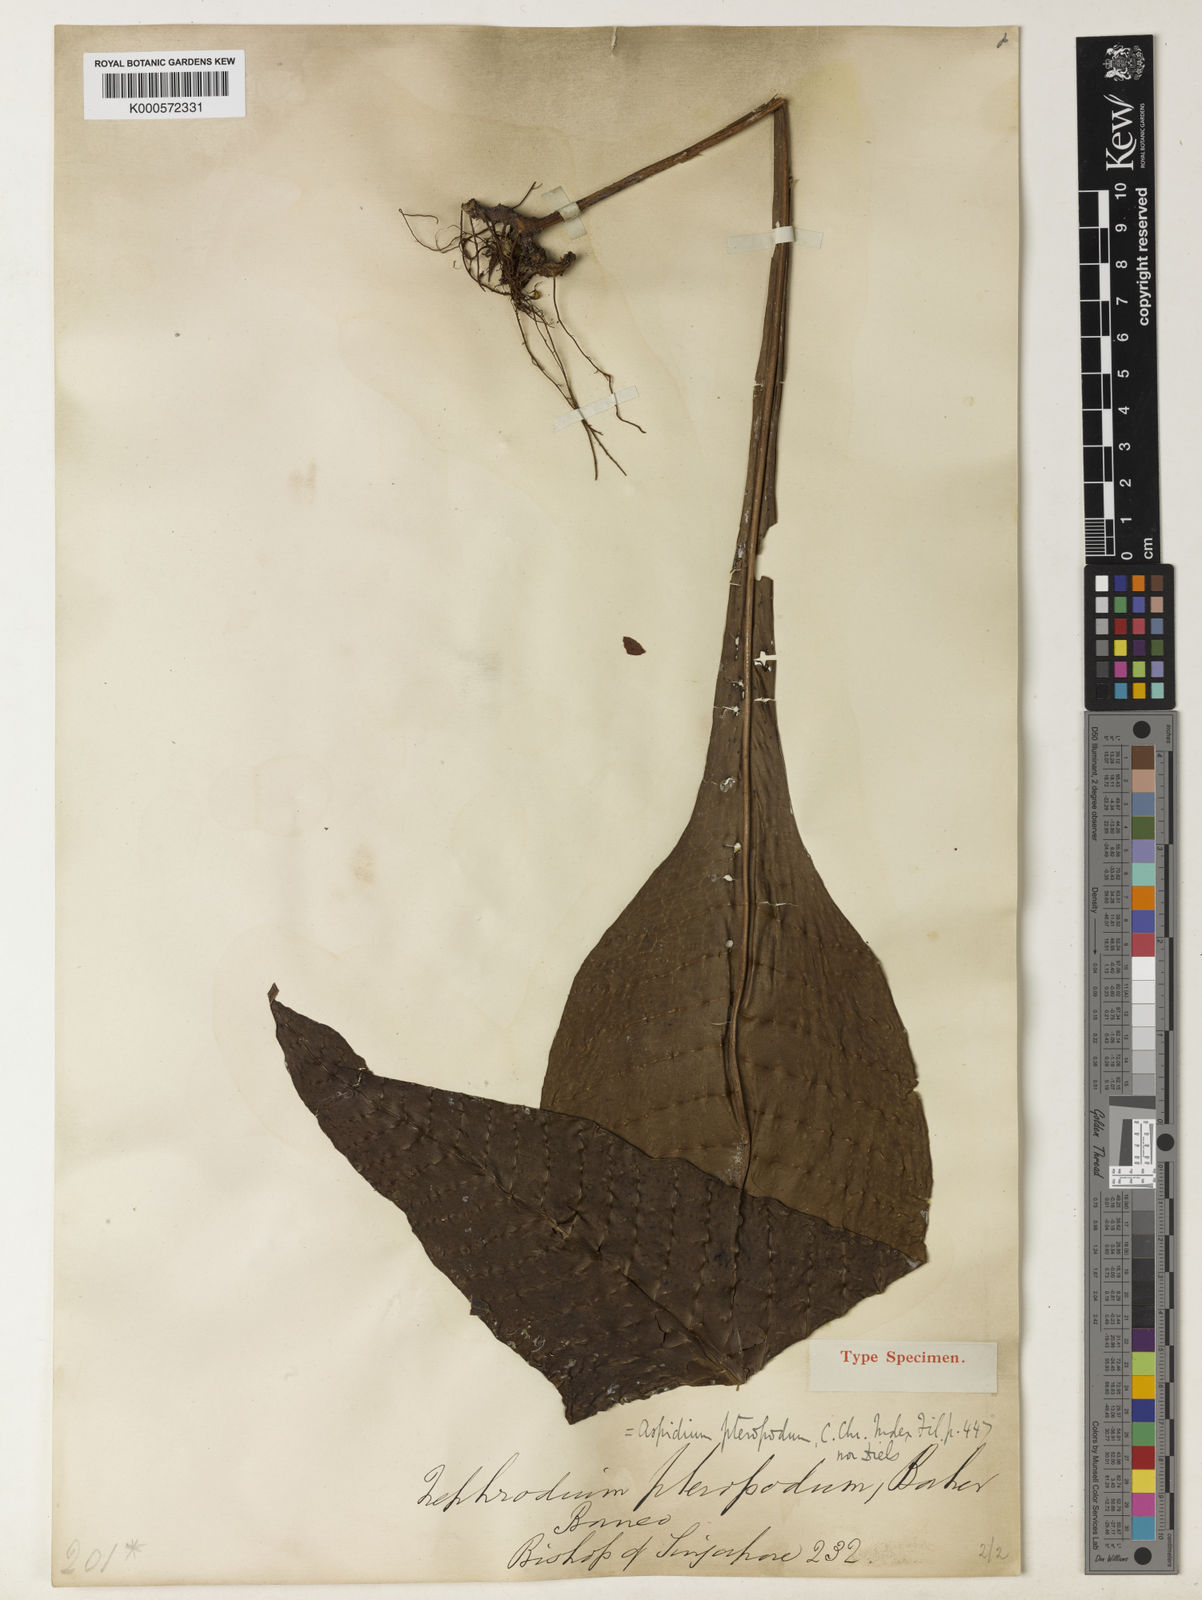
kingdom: Plantae
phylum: Tracheophyta
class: Polypodiopsida
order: Polypodiales
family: Polypodiaceae
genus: Microsorum
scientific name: Microsorum heterocarpum
